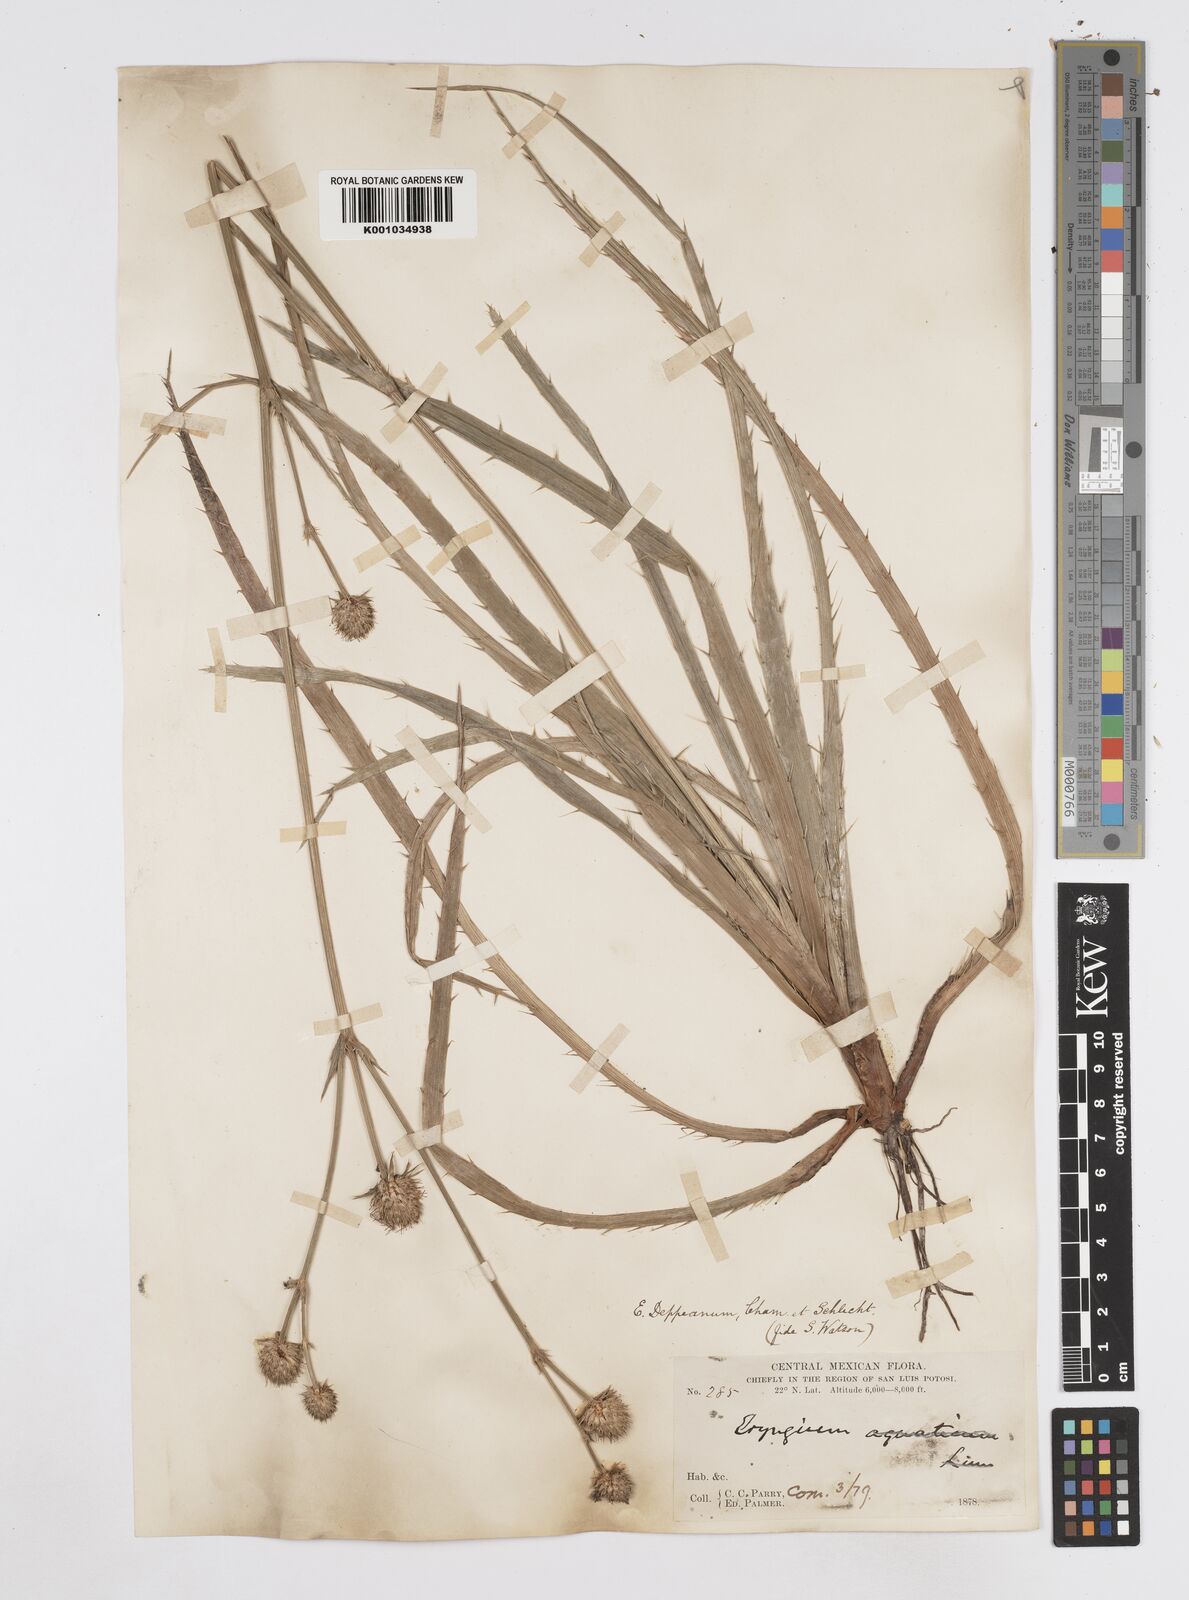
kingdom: Plantae
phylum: Tracheophyta
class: Magnoliopsida
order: Apiales
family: Apiaceae
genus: Eryngium
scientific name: Eryngium palmeri
